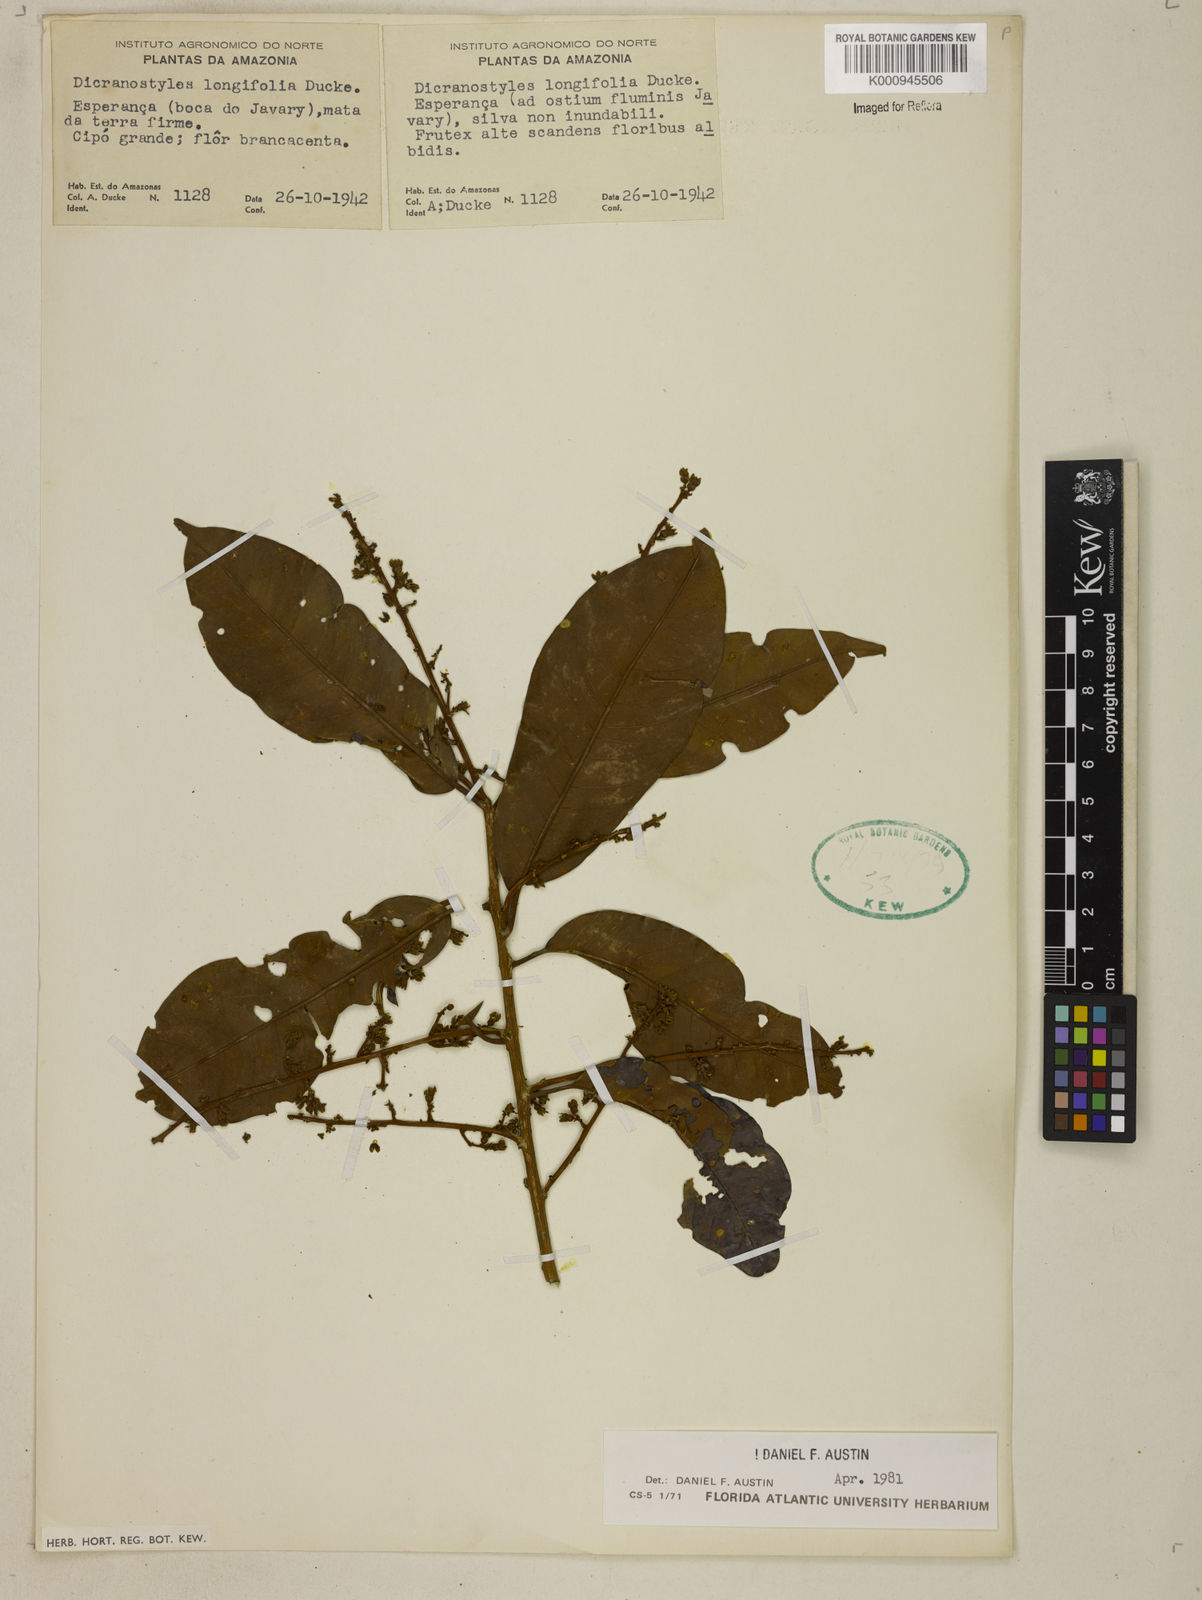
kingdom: Plantae
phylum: Tracheophyta
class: Magnoliopsida
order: Solanales
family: Convolvulaceae
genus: Dicranostyles
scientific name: Dicranostyles longifolia
